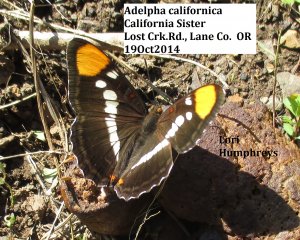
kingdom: Animalia
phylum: Arthropoda
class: Insecta
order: Lepidoptera
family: Nymphalidae
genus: Limenitis
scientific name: Limenitis bredowii
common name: California Sister
